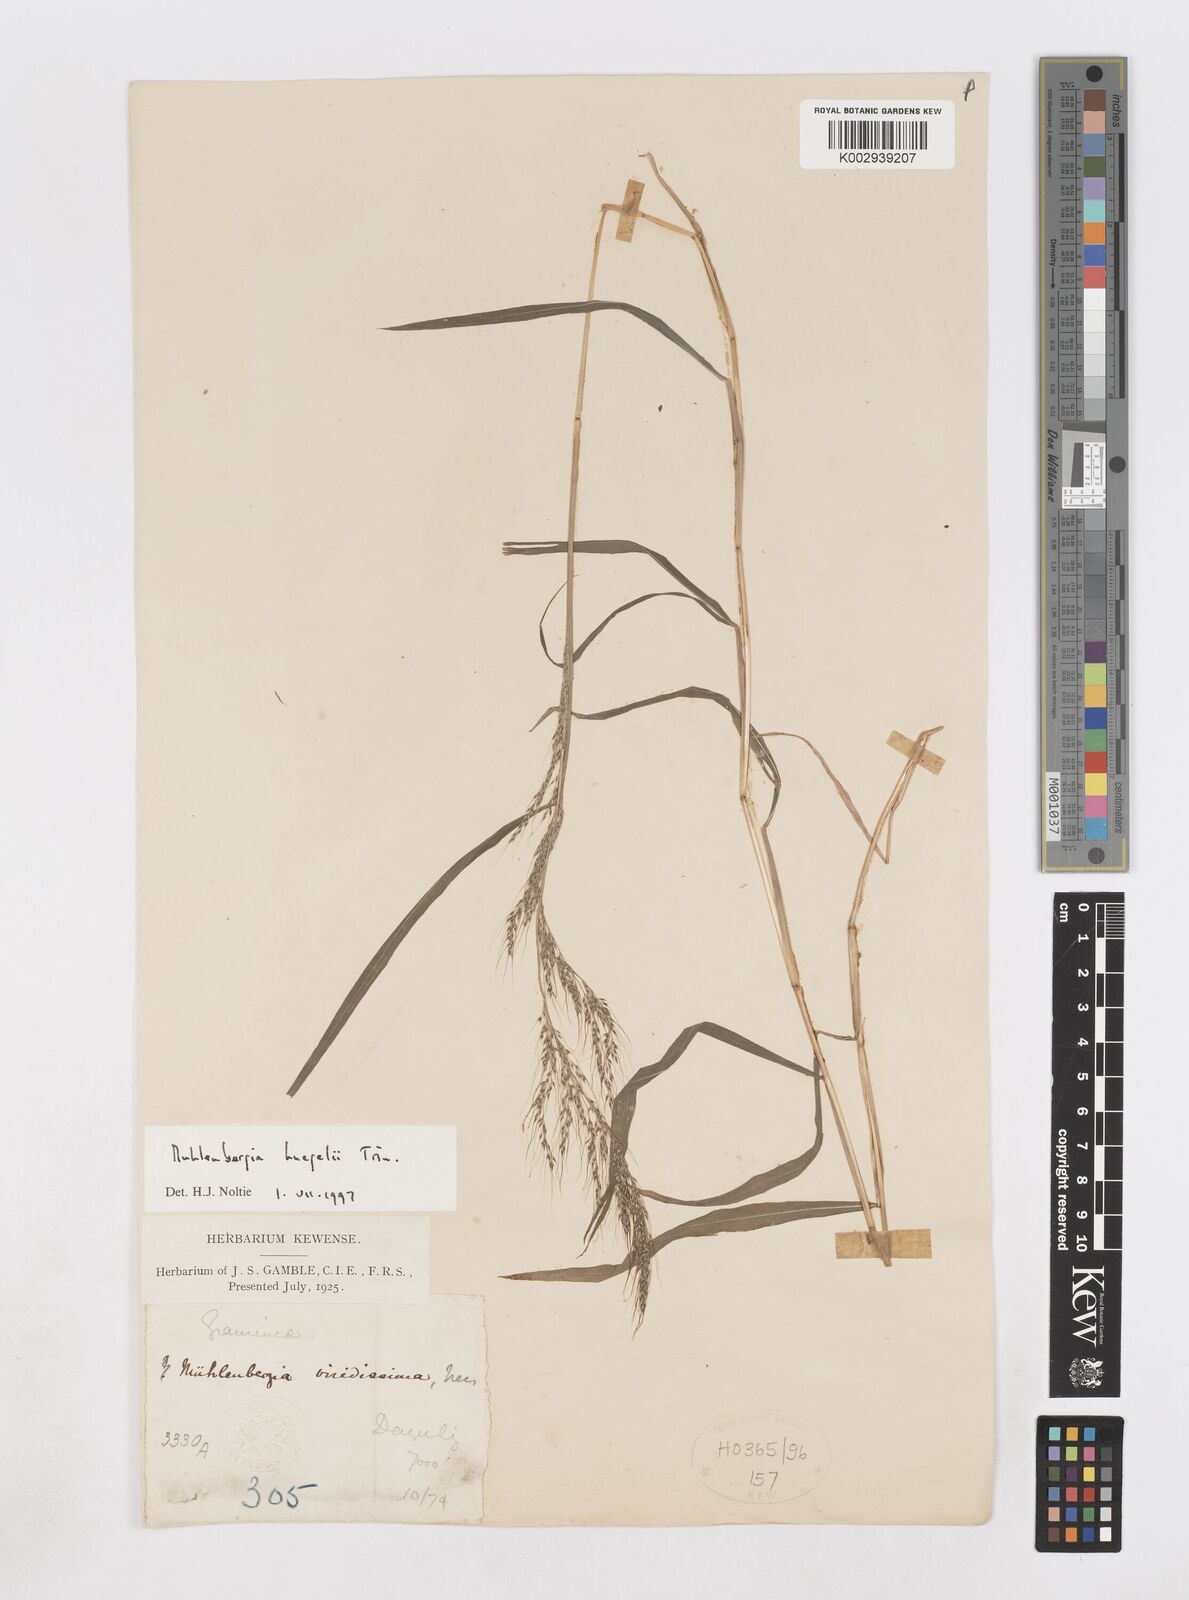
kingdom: Plantae
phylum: Tracheophyta
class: Liliopsida
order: Poales
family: Poaceae
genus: Muhlenbergia
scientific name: Muhlenbergia huegelii
